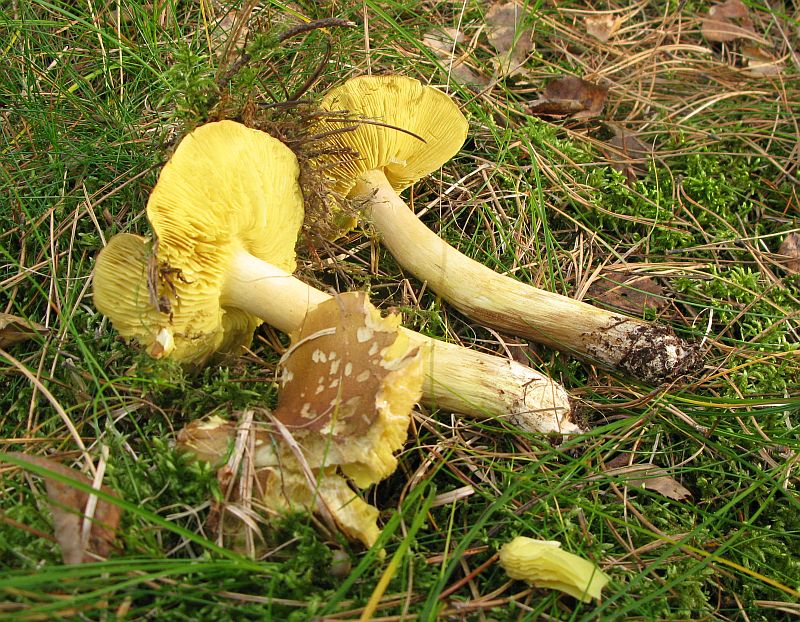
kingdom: Fungi
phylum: Basidiomycota
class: Agaricomycetes
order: Agaricales
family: Tricholomataceae
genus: Tricholoma
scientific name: Tricholoma equestre
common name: ægte ridderhat
